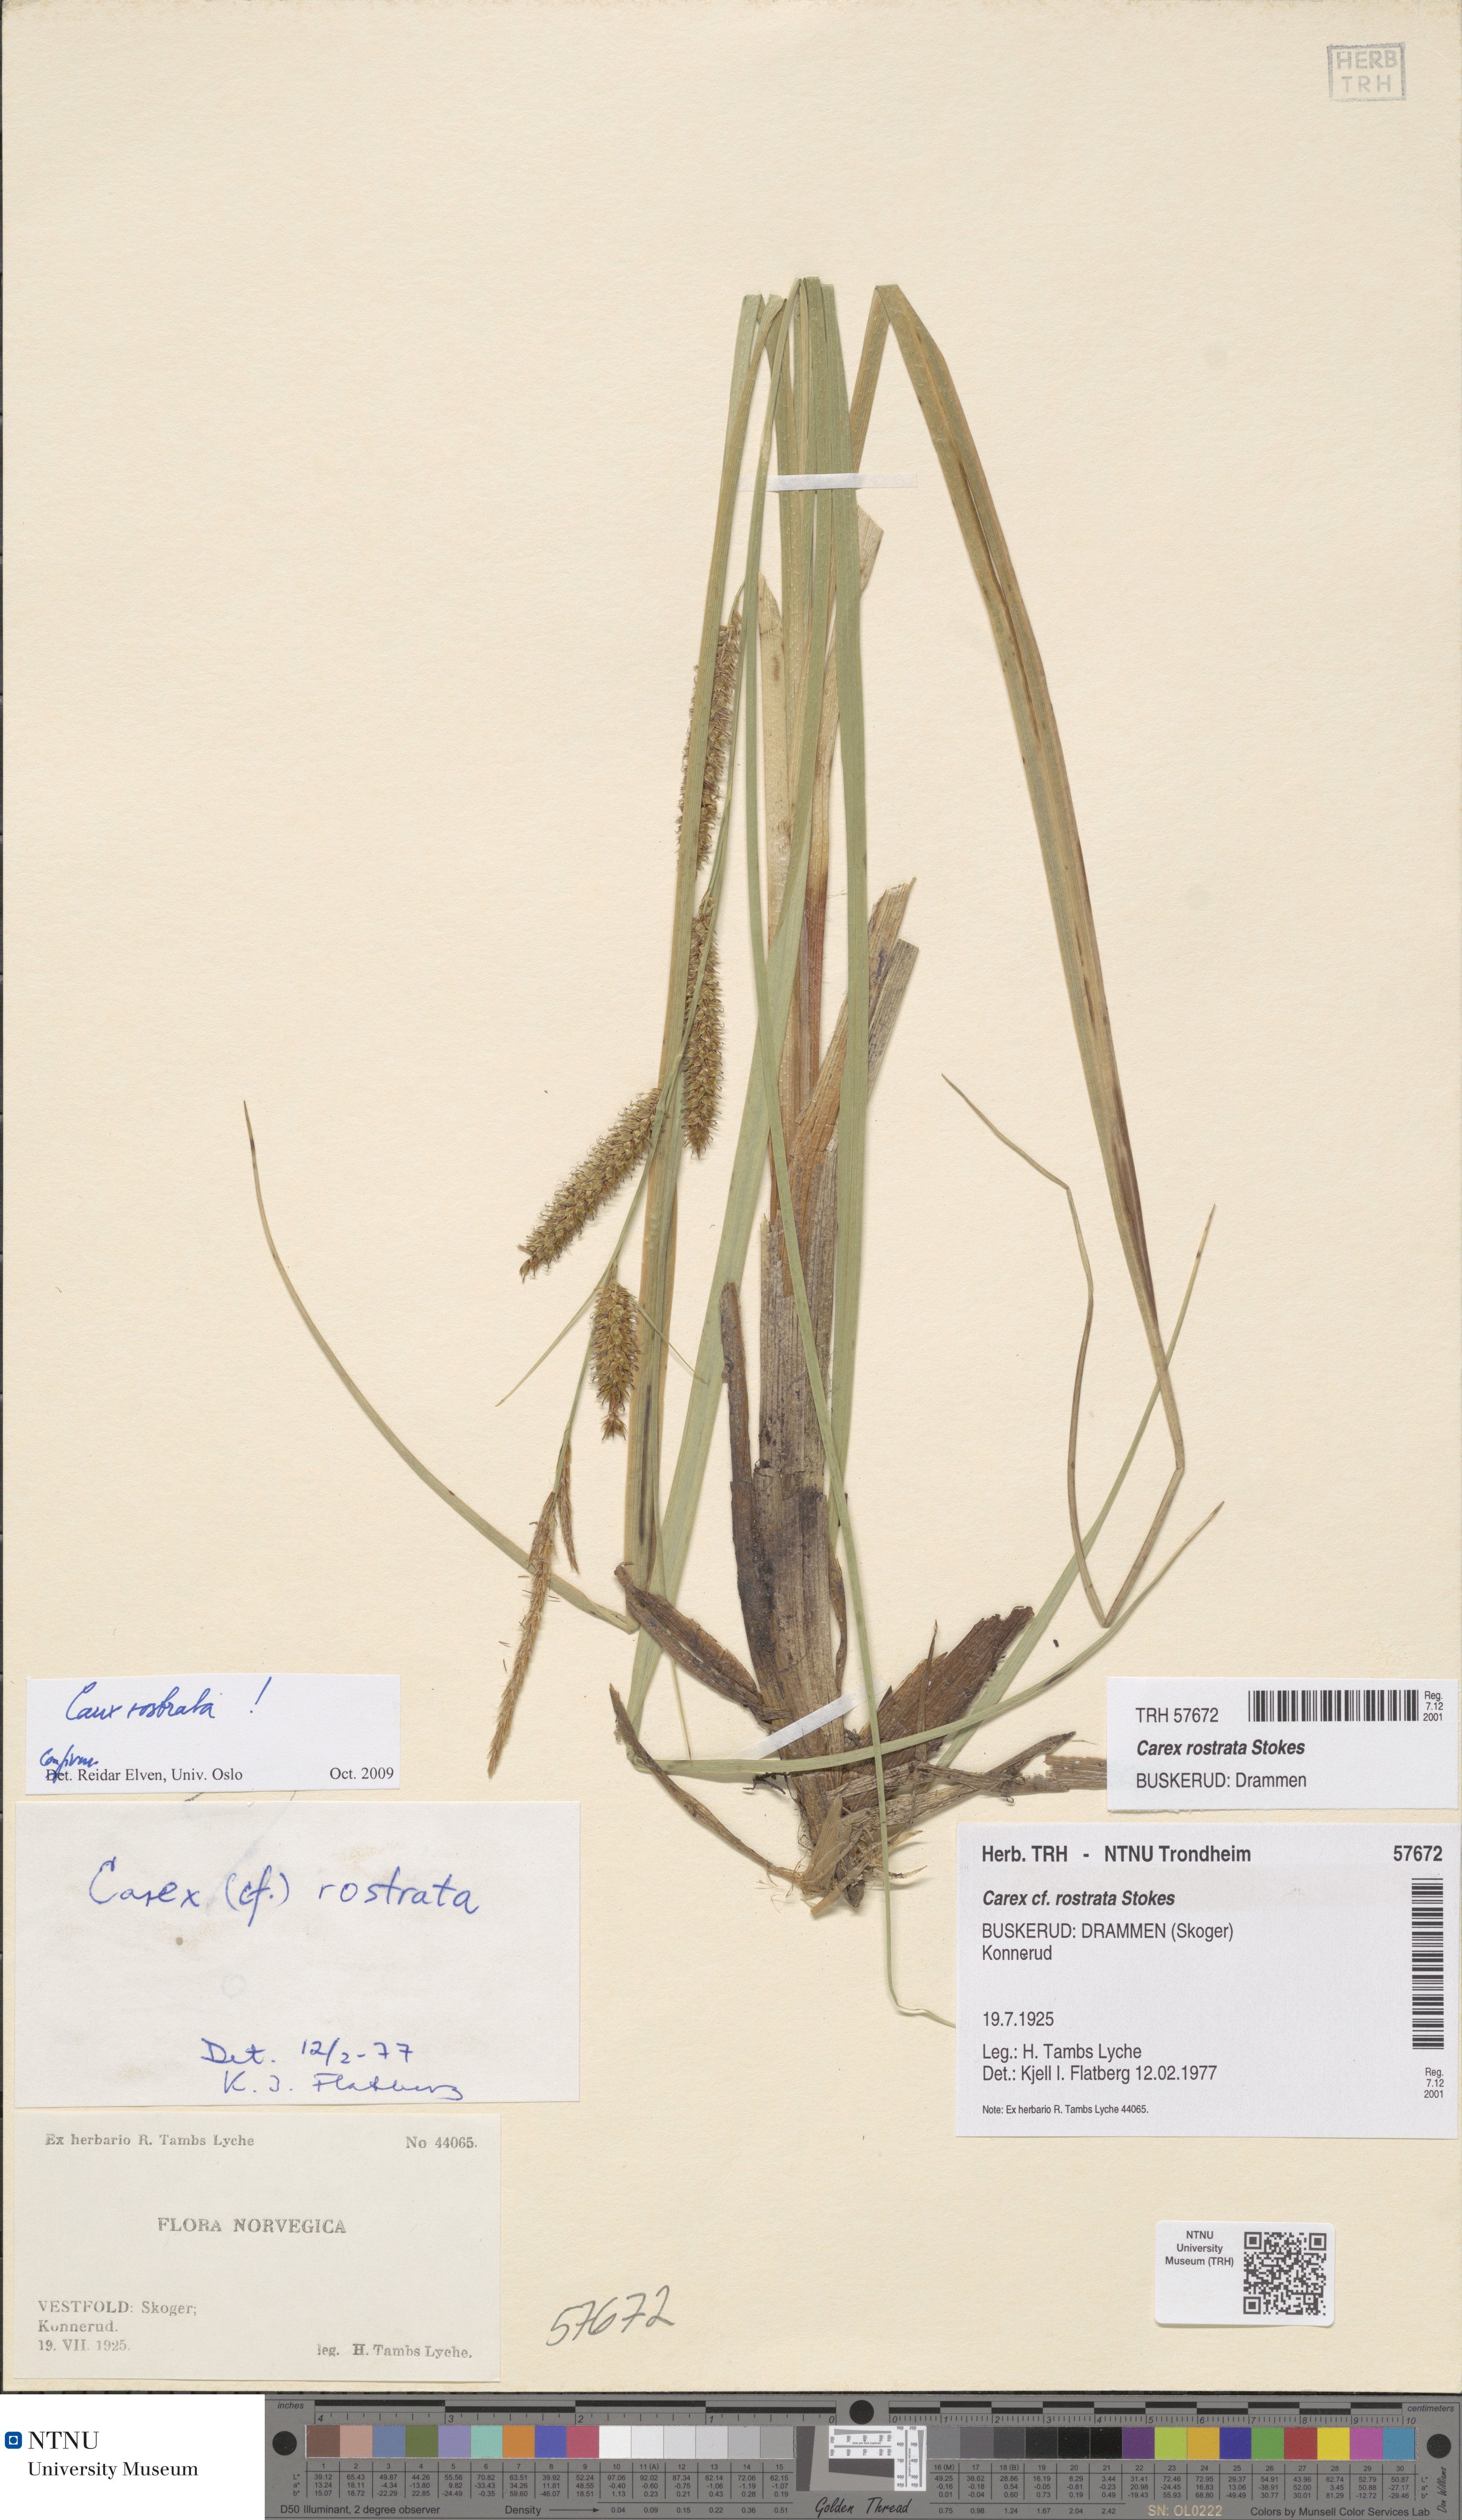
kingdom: Plantae
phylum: Tracheophyta
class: Liliopsida
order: Poales
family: Cyperaceae
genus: Carex
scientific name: Carex rostrata
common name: Bottle sedge
